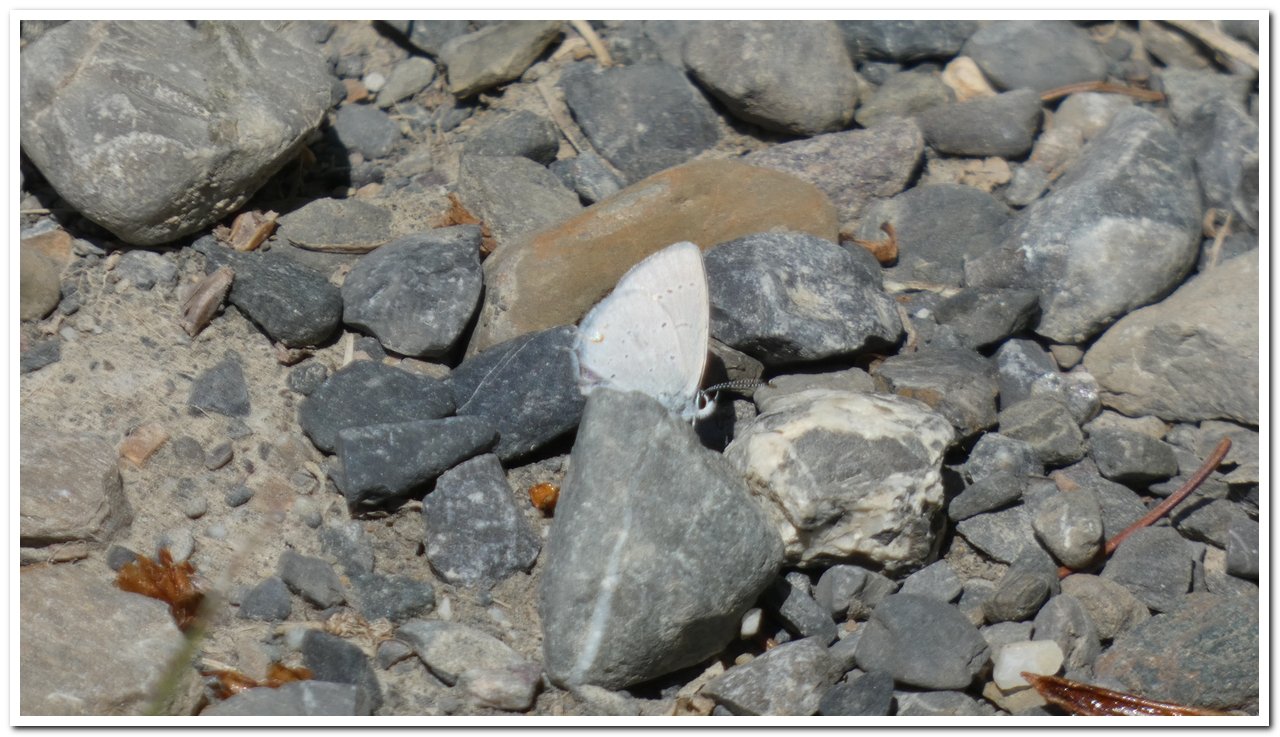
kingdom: Animalia
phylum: Arthropoda
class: Insecta
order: Lepidoptera
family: Lycaenidae
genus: Elkalyce
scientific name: Elkalyce amyntula
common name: Western Tailed-Blue
